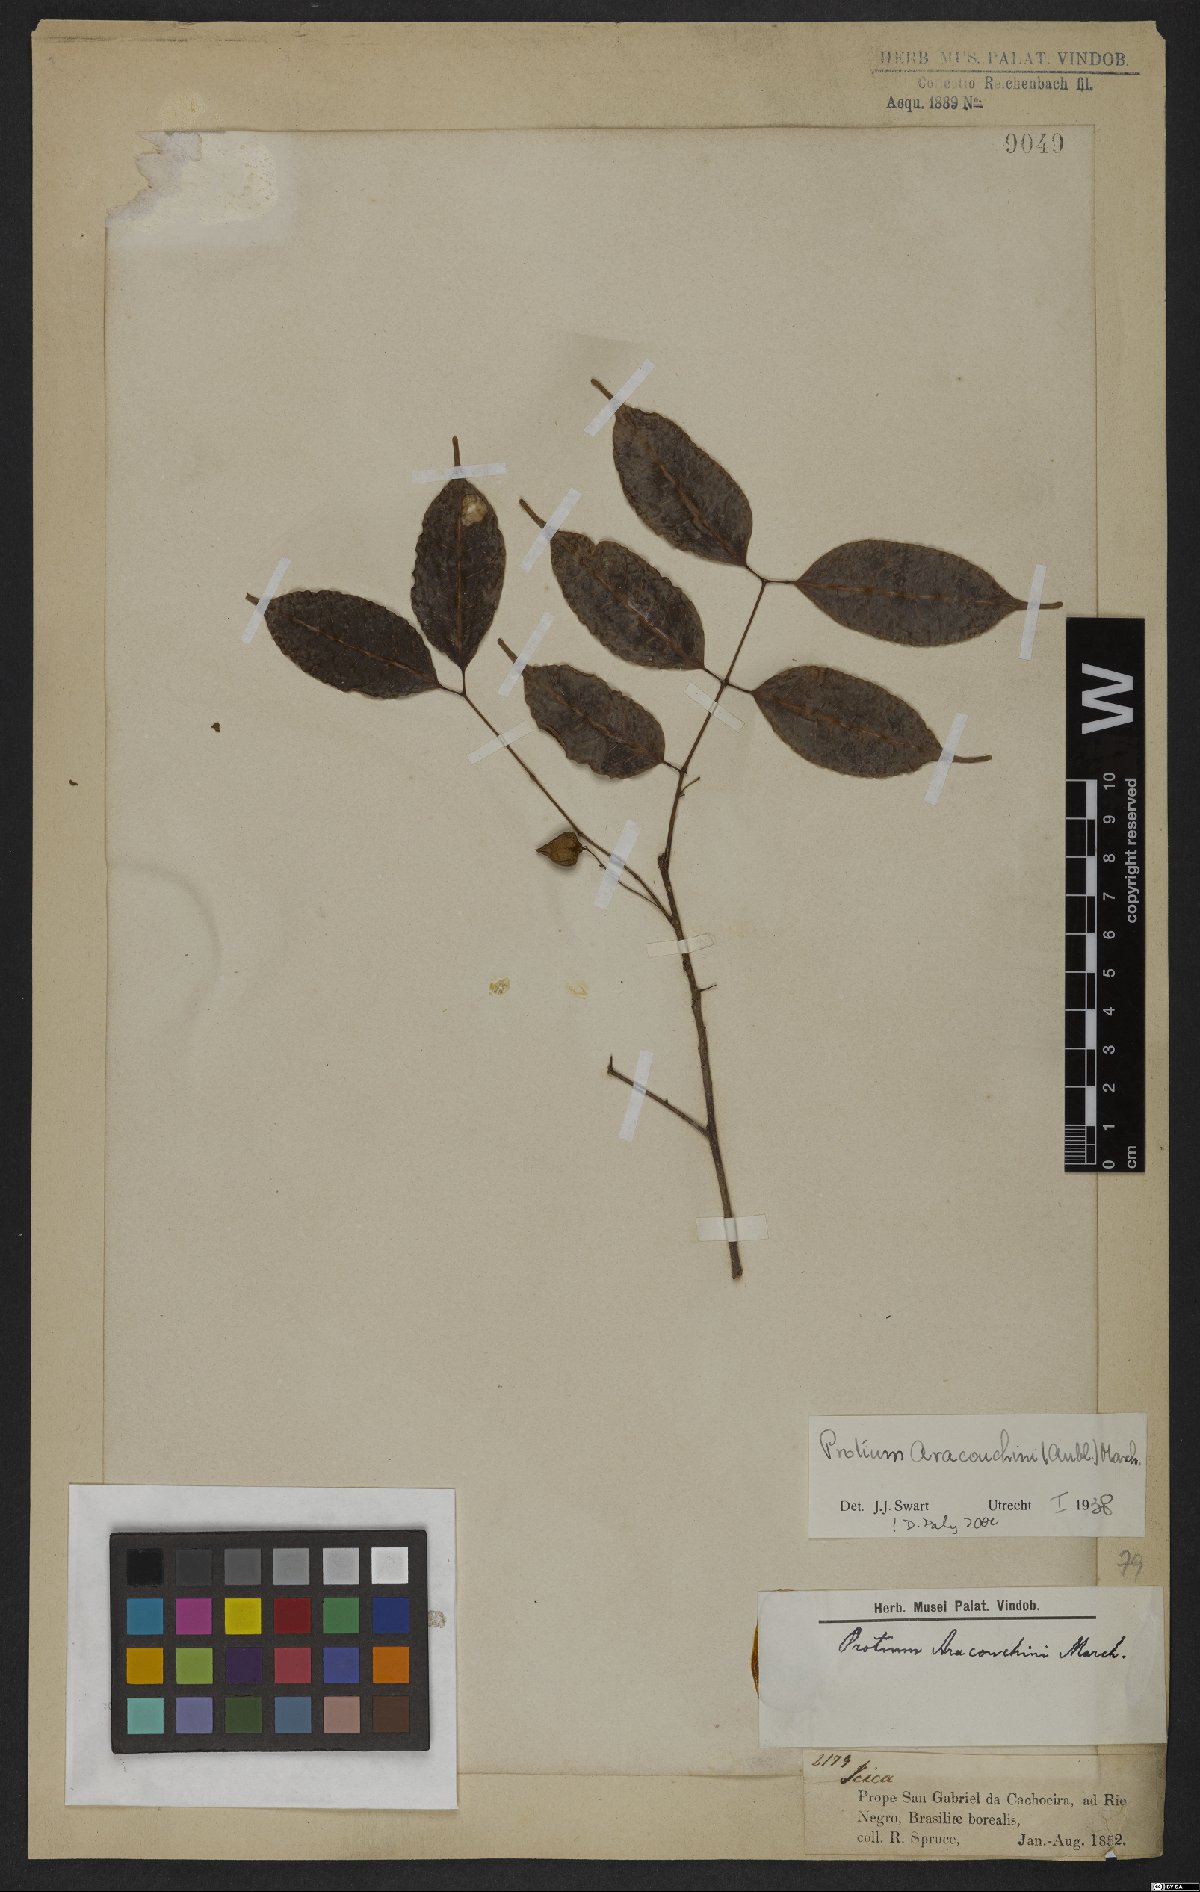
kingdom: Plantae
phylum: Tracheophyta
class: Magnoliopsida
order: Sapindales
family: Burseraceae
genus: Protium
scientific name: Protium leptostachyum
